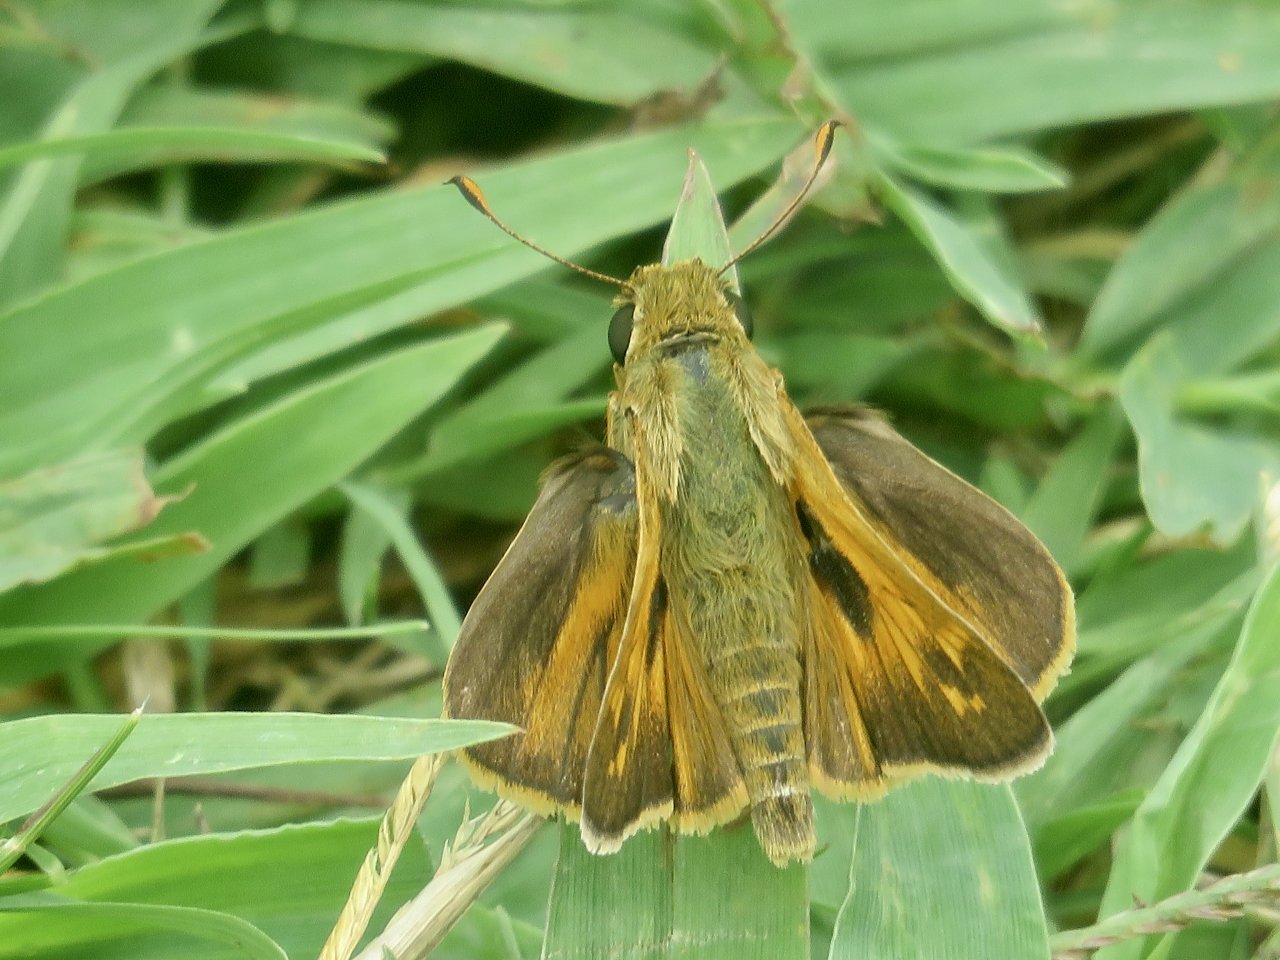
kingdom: Animalia
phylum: Arthropoda
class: Insecta
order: Lepidoptera
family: Hesperiidae
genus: Atalopedes
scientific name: Atalopedes campestris
